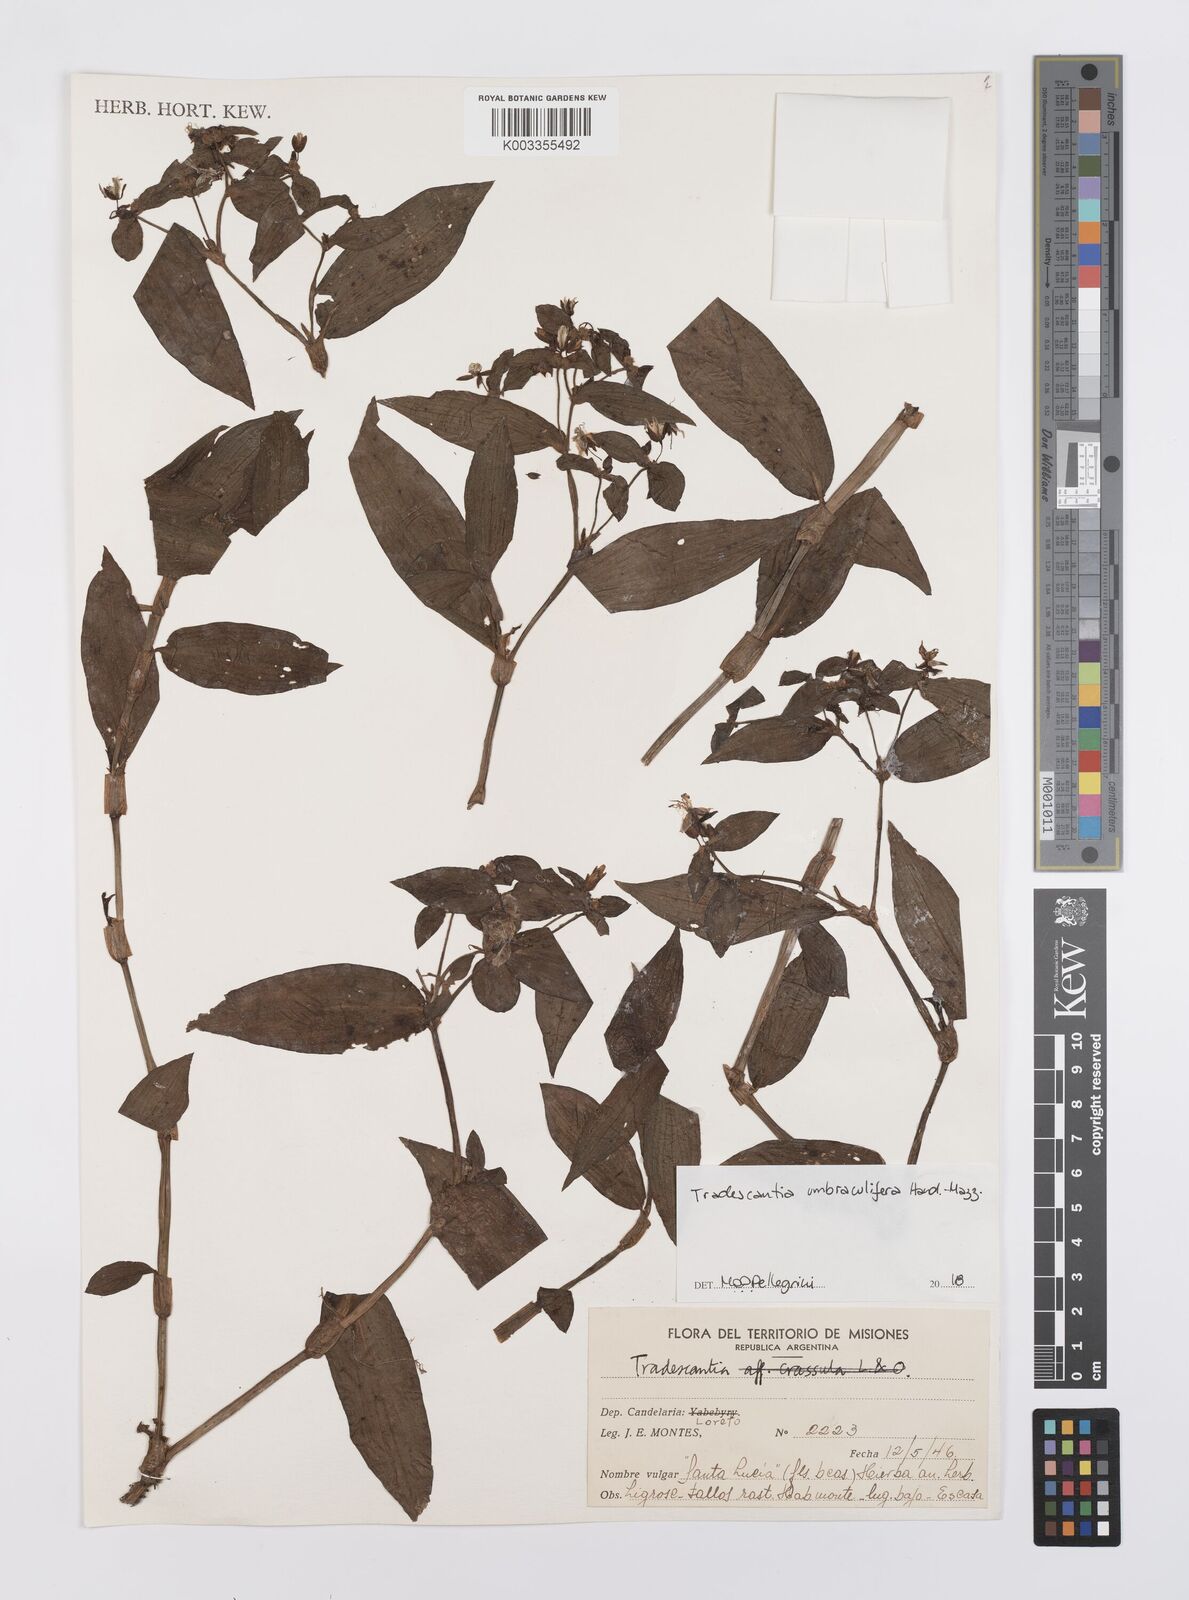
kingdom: Plantae
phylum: Tracheophyta
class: Liliopsida
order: Commelinales
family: Commelinaceae
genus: Tradescantia
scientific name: Tradescantia umbraculifera
